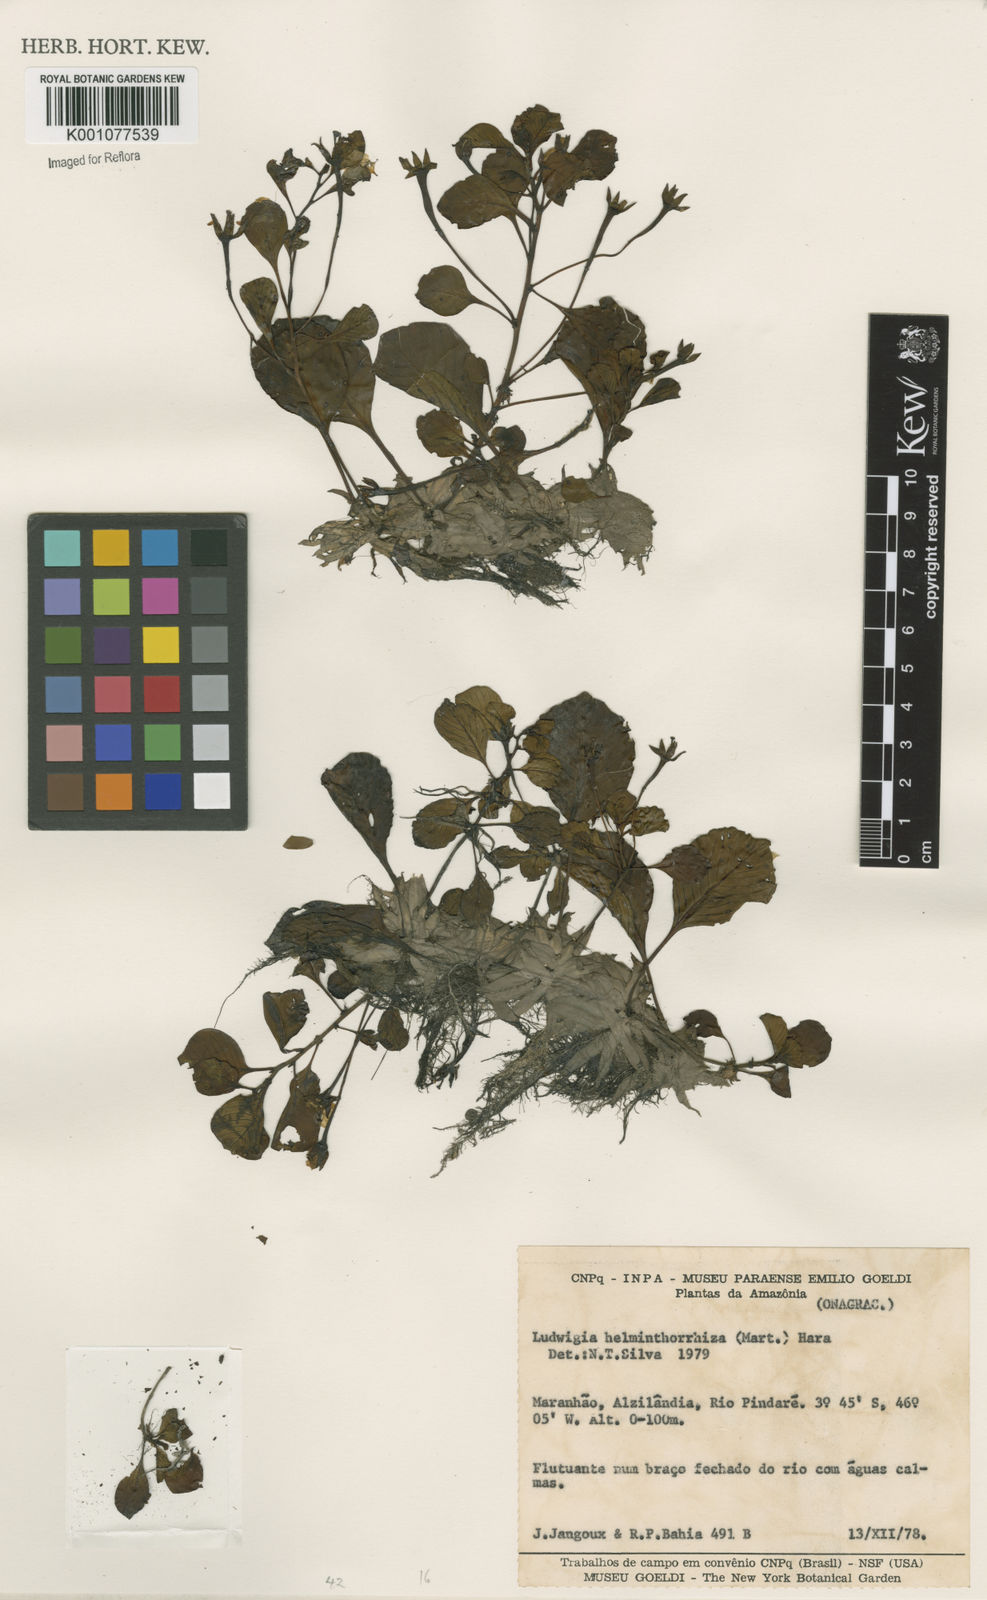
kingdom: Plantae
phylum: Tracheophyta
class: Magnoliopsida
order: Myrtales
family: Onagraceae
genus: Ludwigia
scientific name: Ludwigia helminthorrhiza
